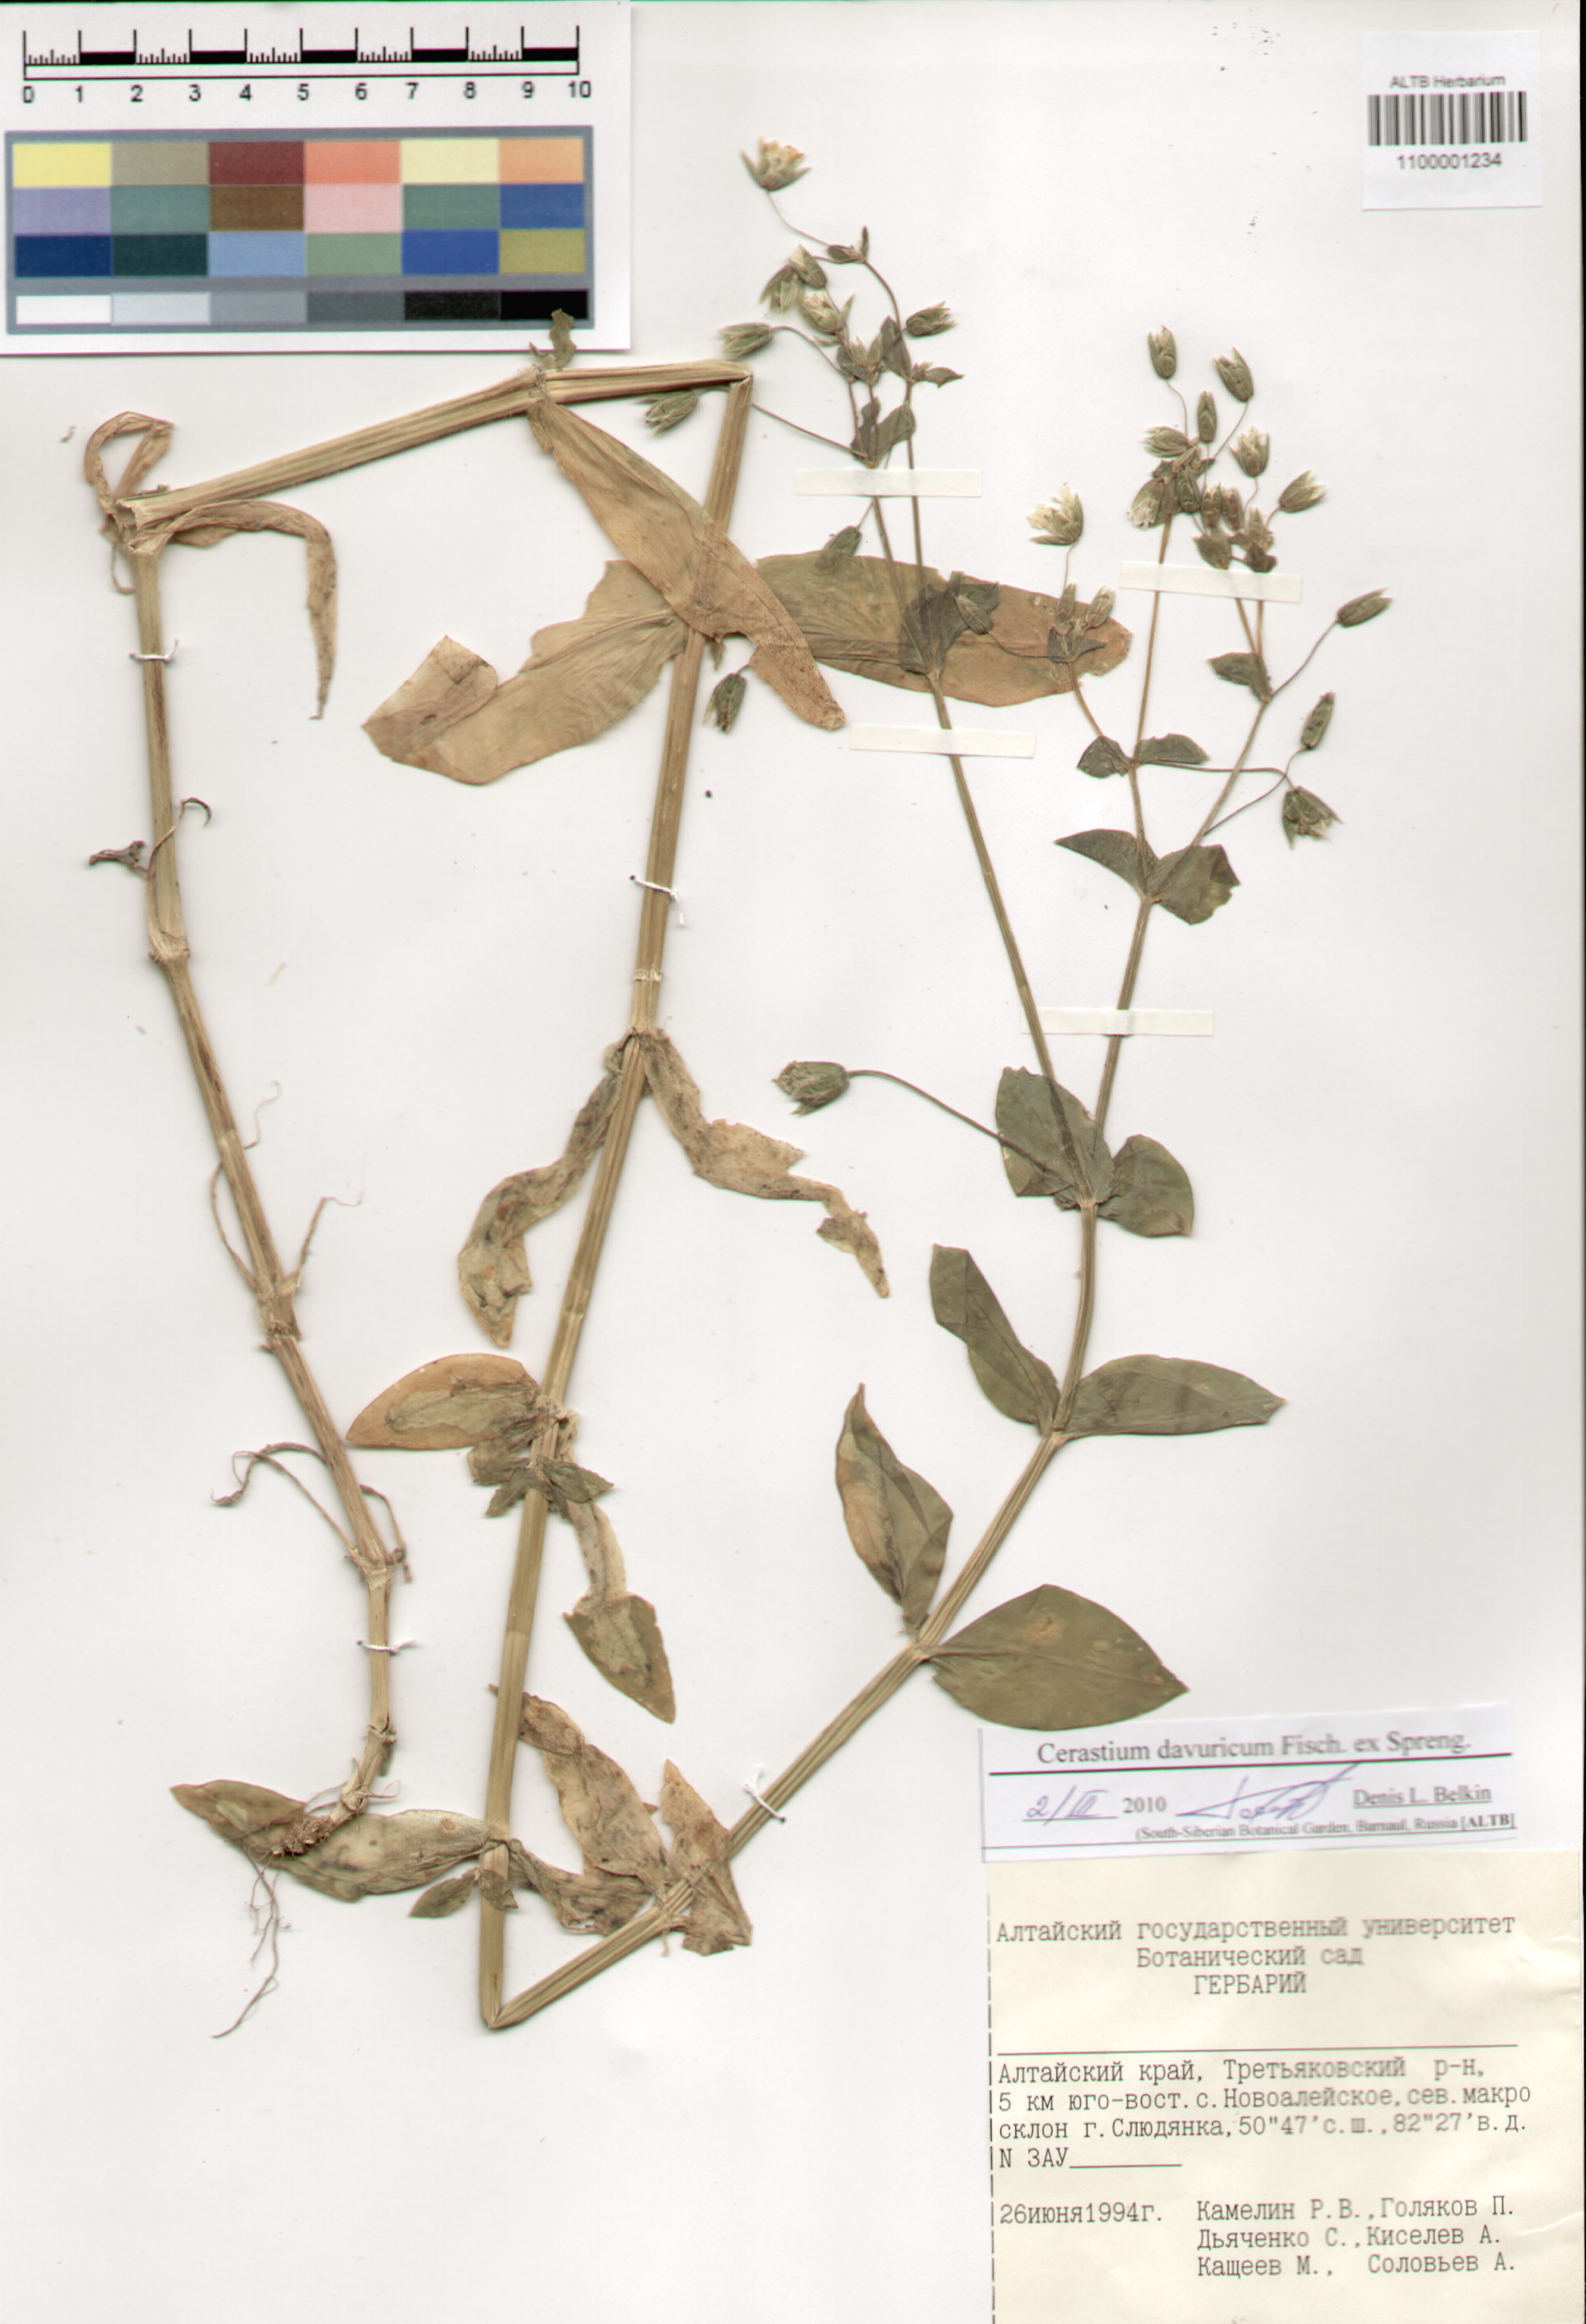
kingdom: Plantae
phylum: Tracheophyta
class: Magnoliopsida
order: Caryophyllales
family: Caryophyllaceae
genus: Dichodon
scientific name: Dichodon davuricum
